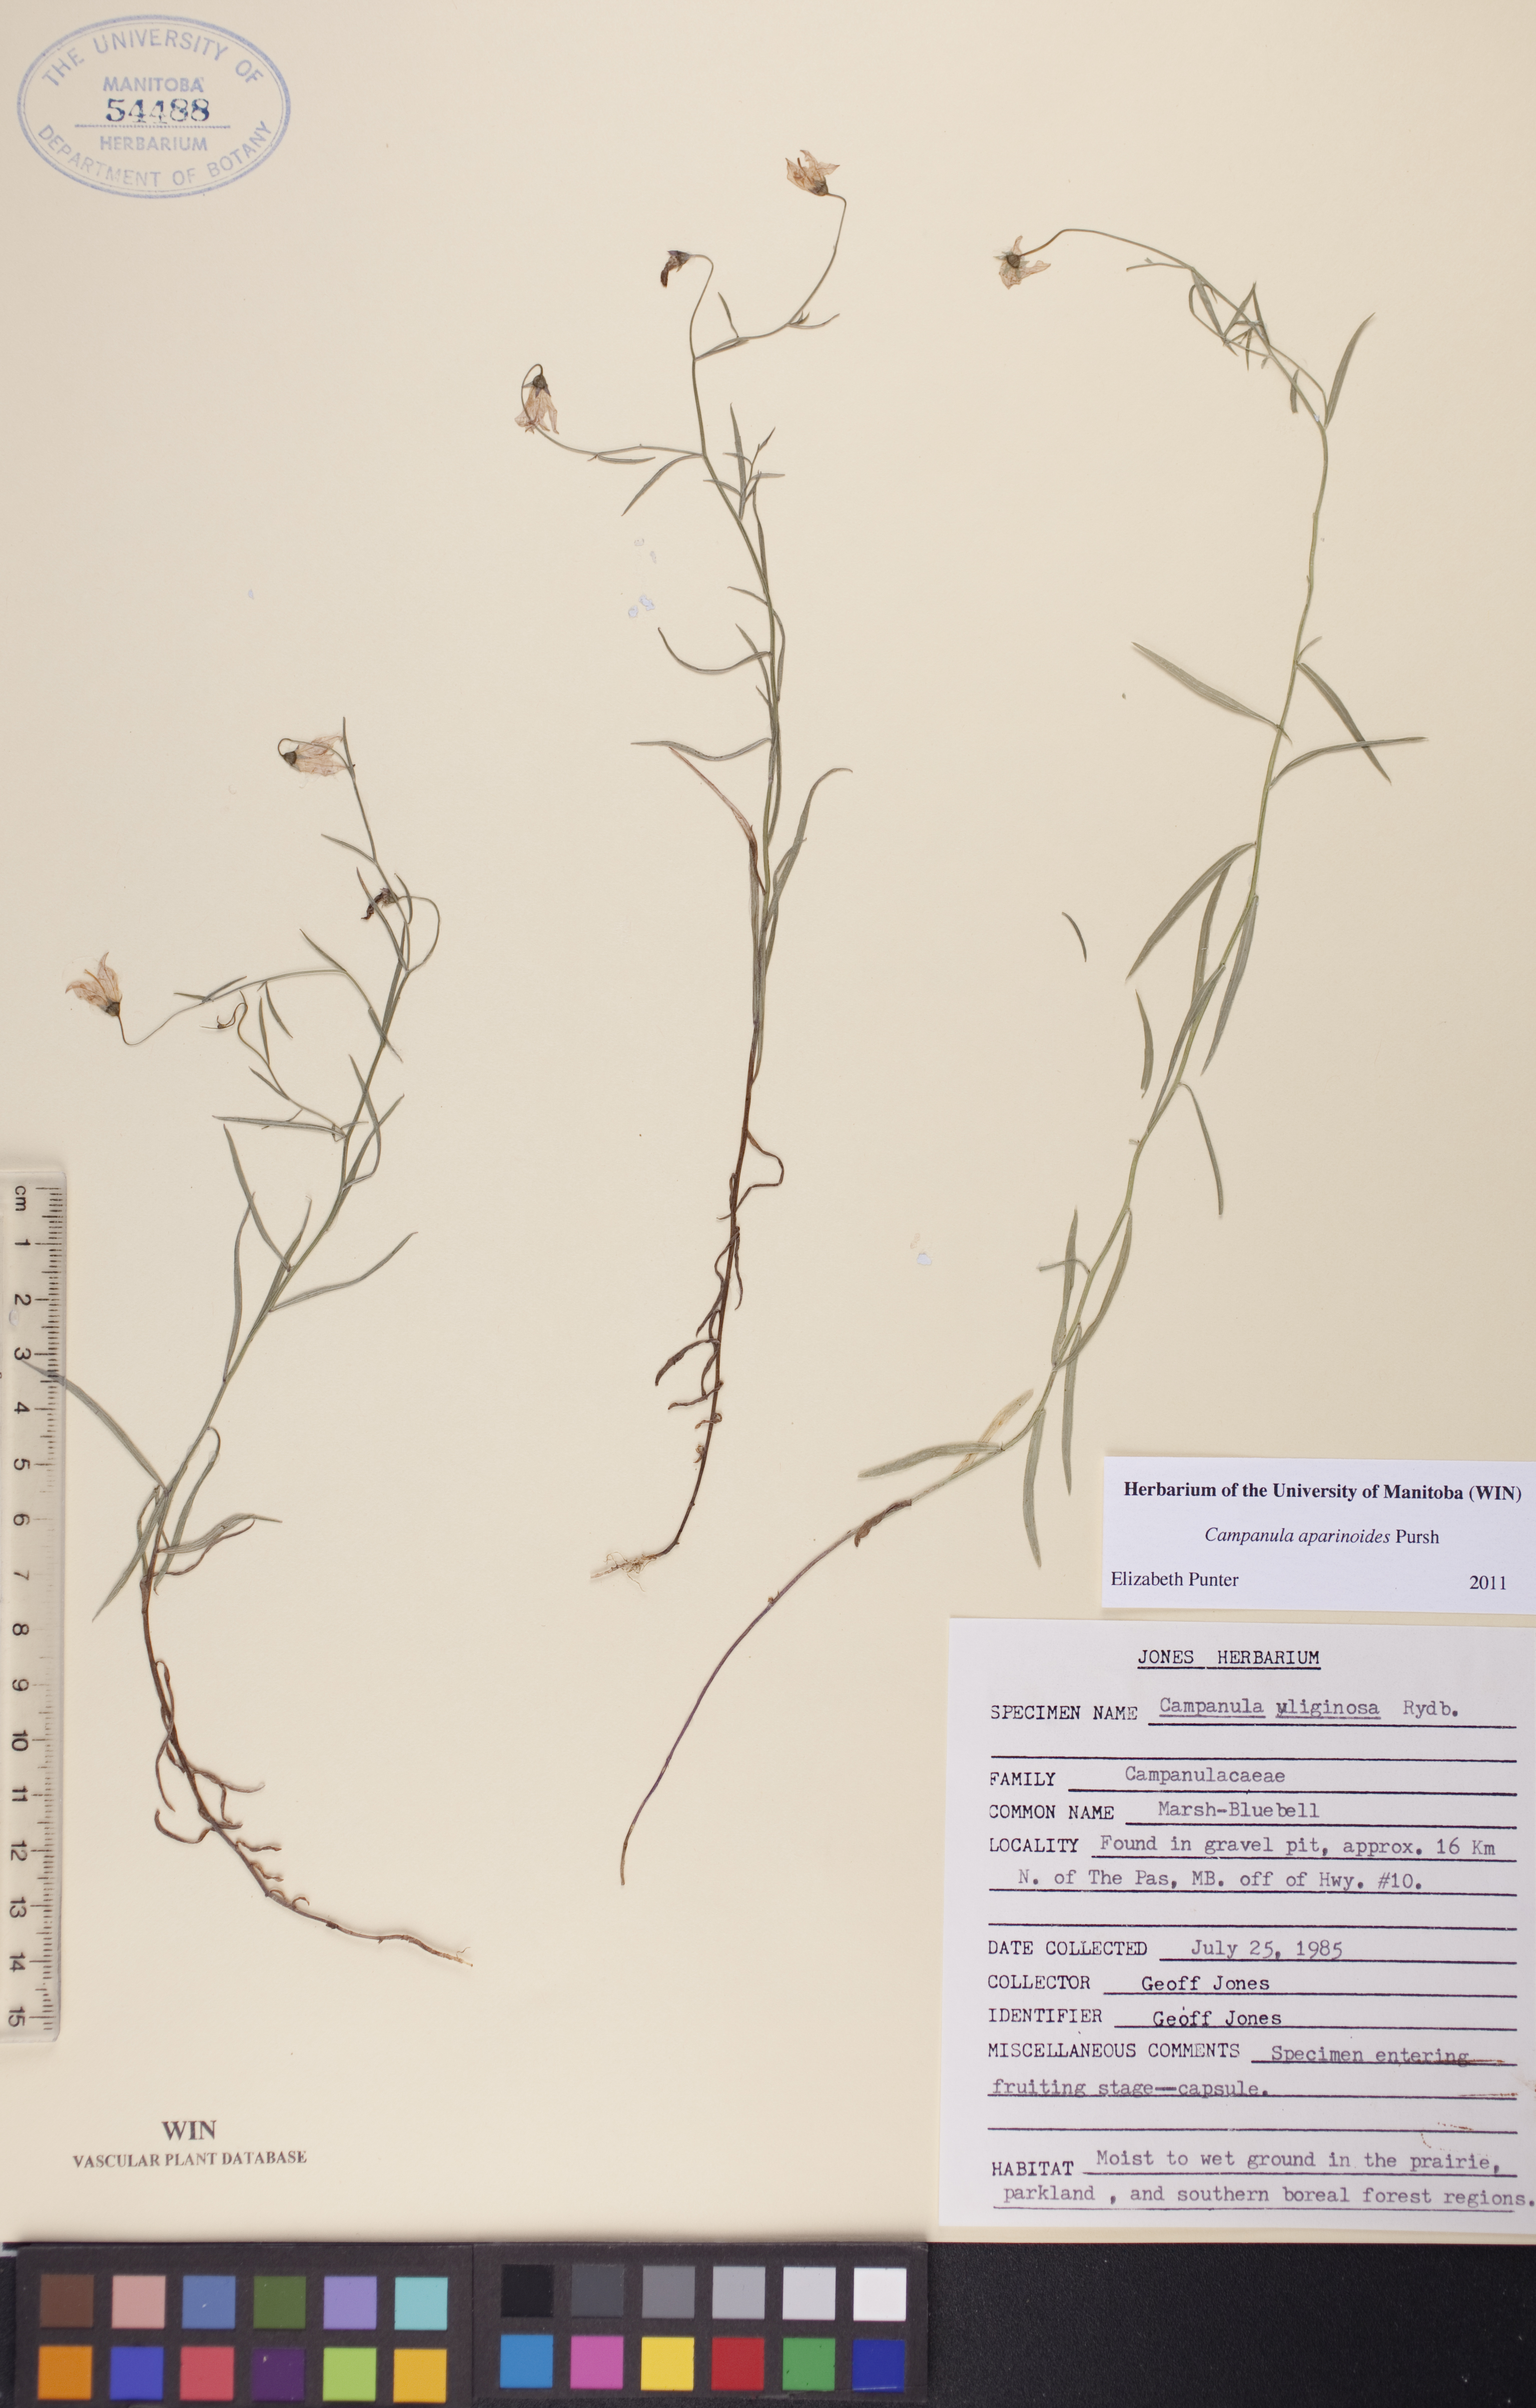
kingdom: Plantae
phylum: Tracheophyta
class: Magnoliopsida
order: Asterales
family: Campanulaceae
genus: Palustricodon
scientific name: Palustricodon aparinoides
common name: Bedstraw bellflower
